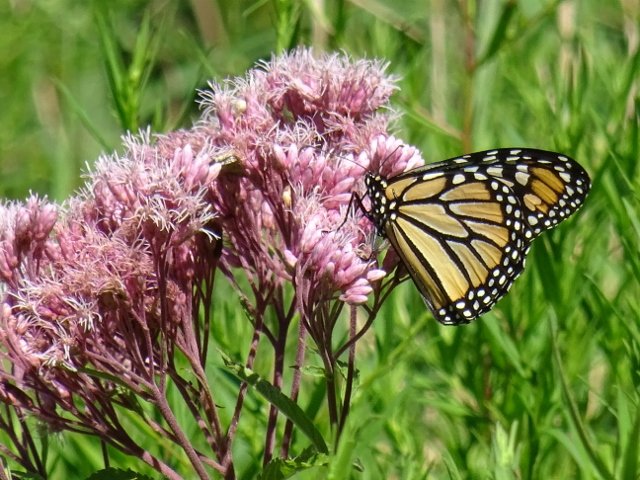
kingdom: Animalia
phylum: Arthropoda
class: Insecta
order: Lepidoptera
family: Nymphalidae
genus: Danaus
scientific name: Danaus plexippus
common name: Monarch
